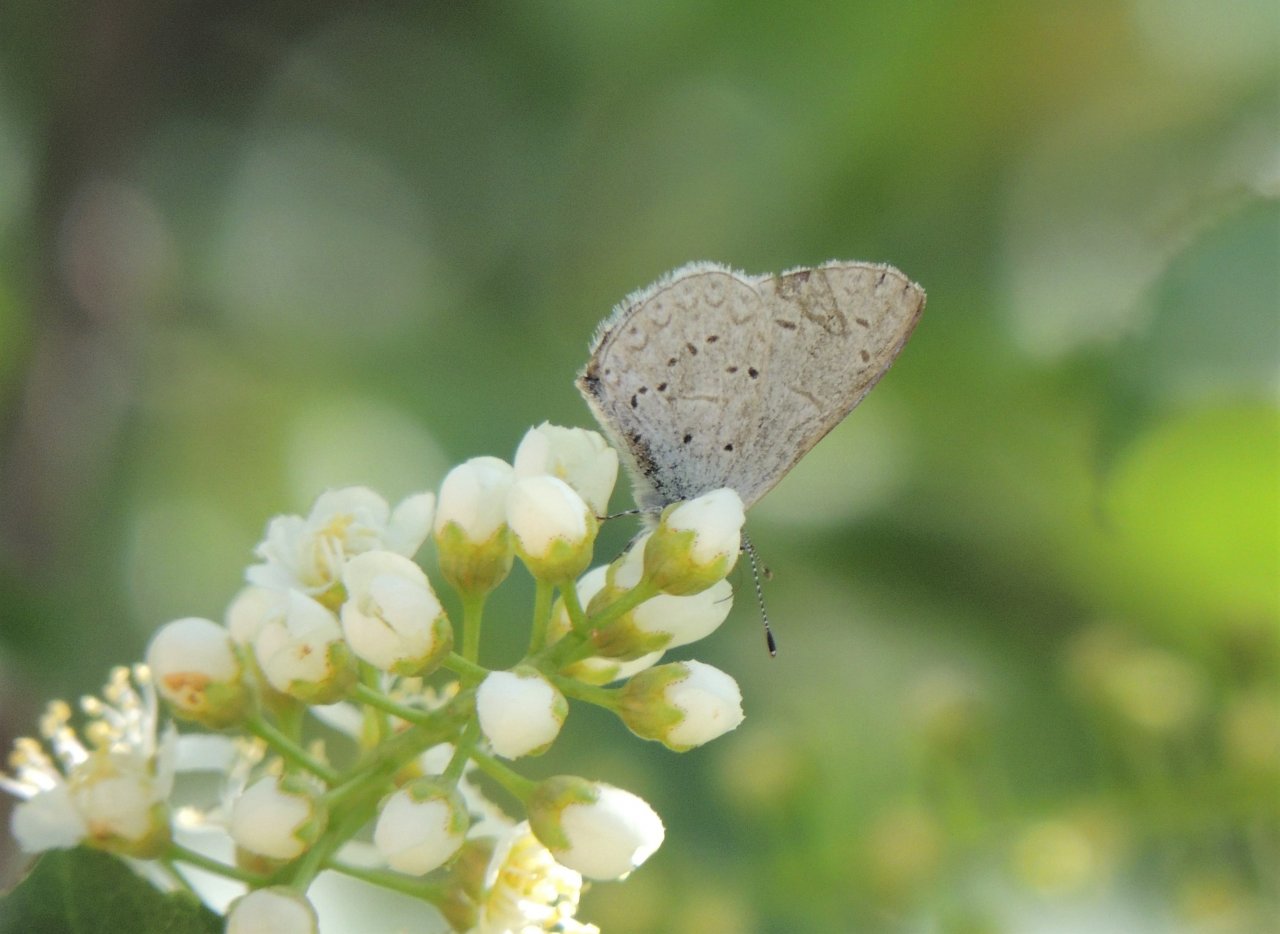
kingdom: Animalia
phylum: Arthropoda
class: Insecta
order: Lepidoptera
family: Lycaenidae
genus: Celastrina
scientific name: Celastrina ladon
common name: Echo Azure
